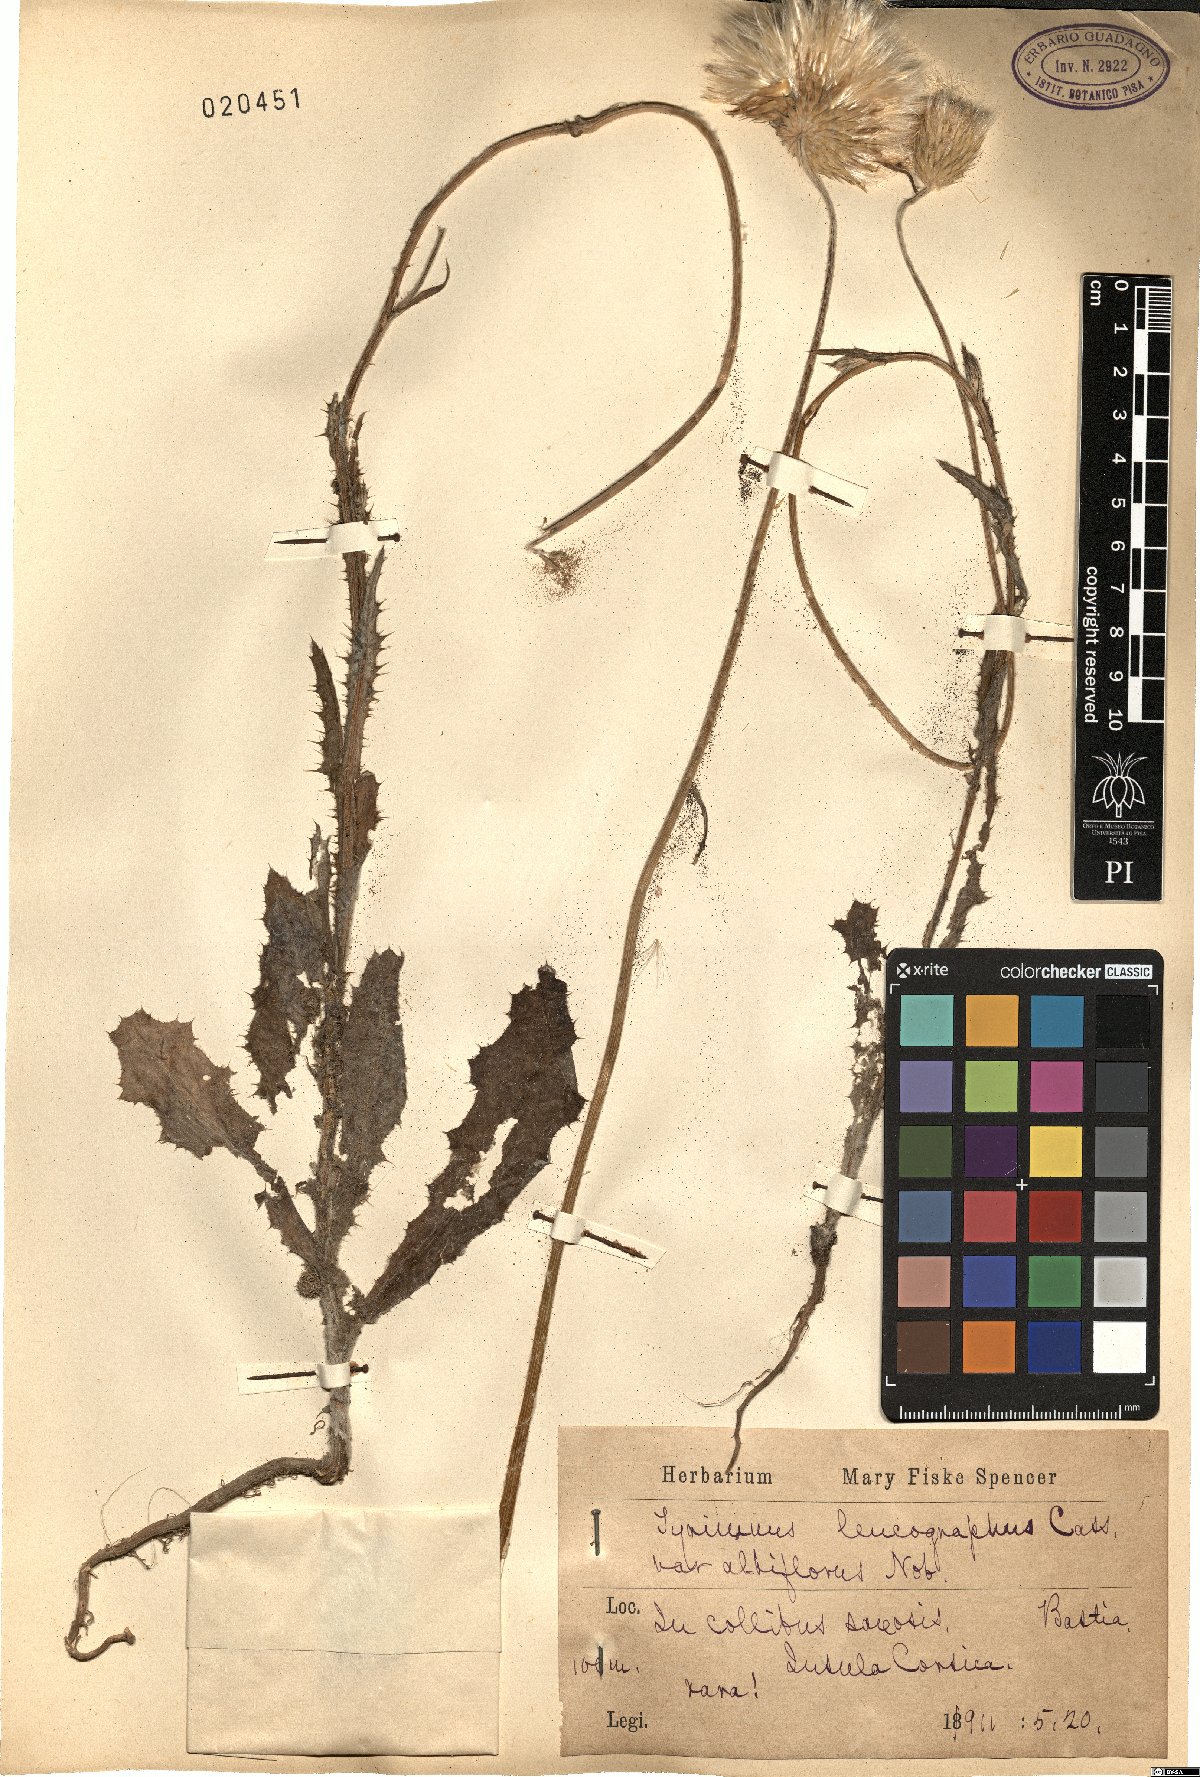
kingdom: Plantae
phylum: Tracheophyta
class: Magnoliopsida
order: Asterales
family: Asteraceae
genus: Tyrimnus
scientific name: Tyrimnus leucographus
